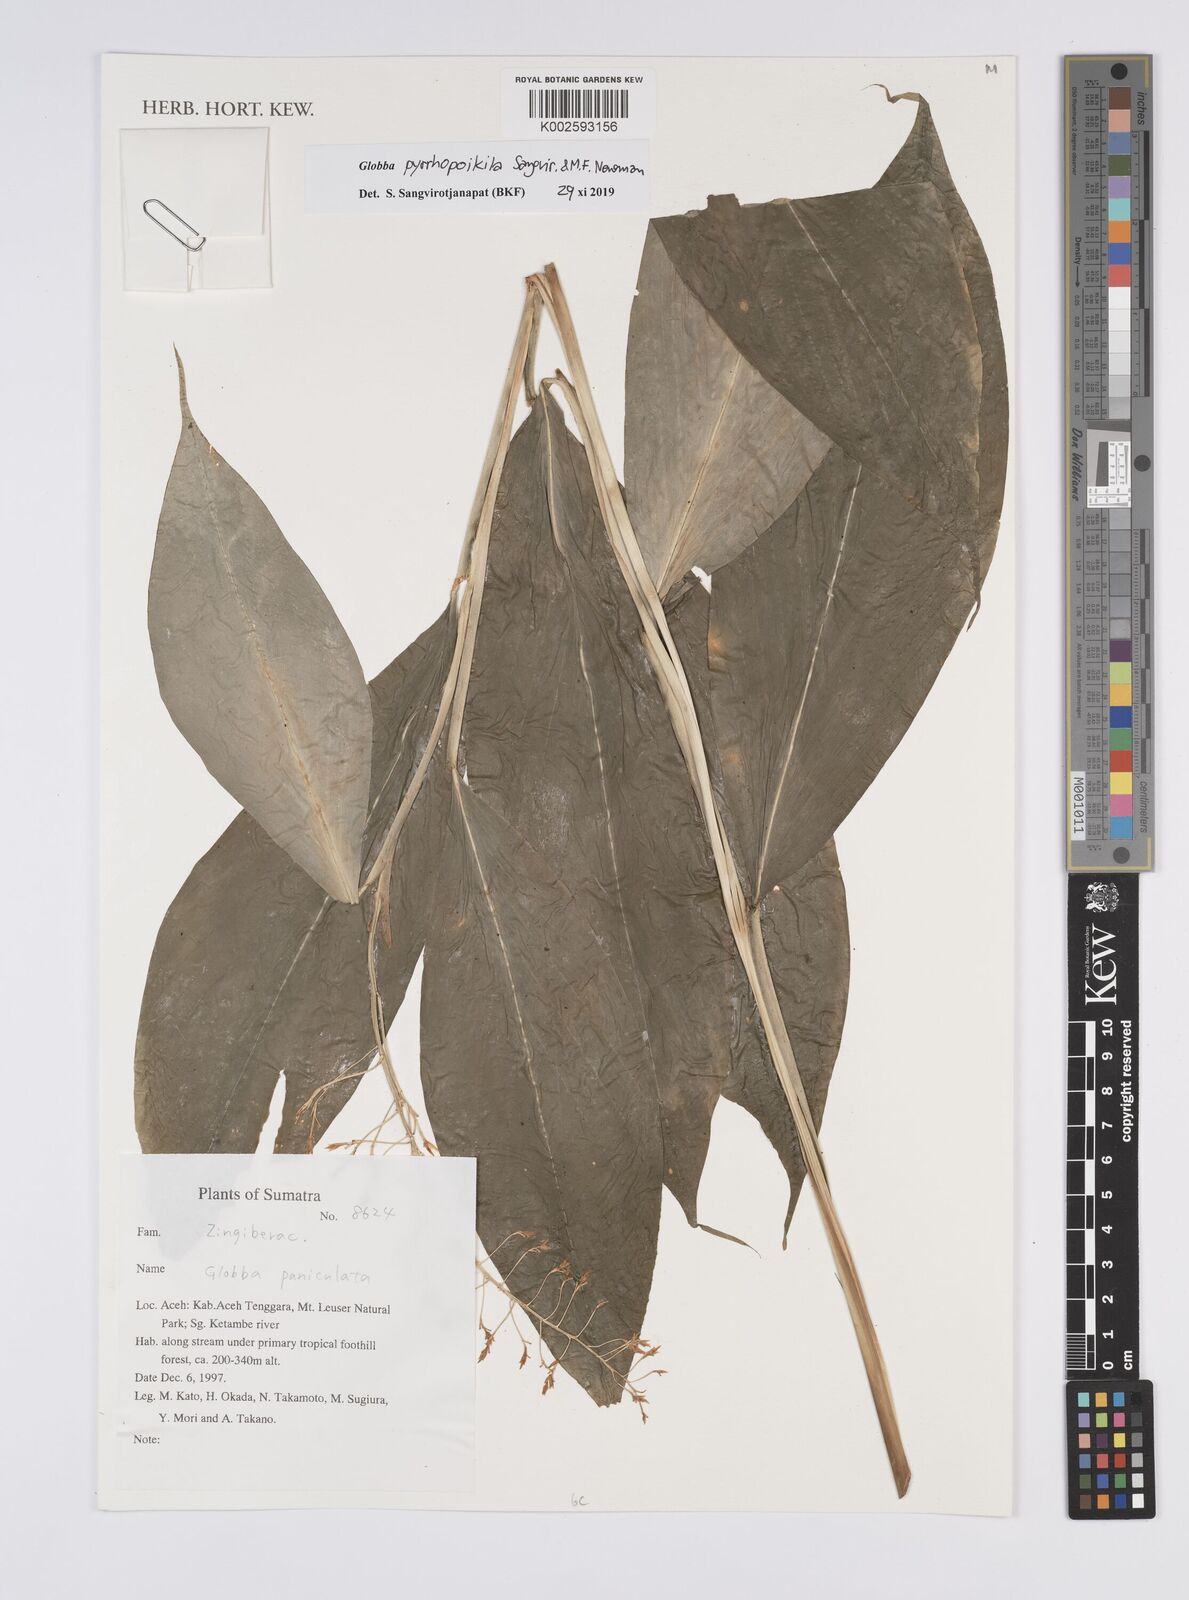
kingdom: Plantae
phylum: Tracheophyta
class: Liliopsida
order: Zingiberales
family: Zingiberaceae
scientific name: Zingiberaceae
